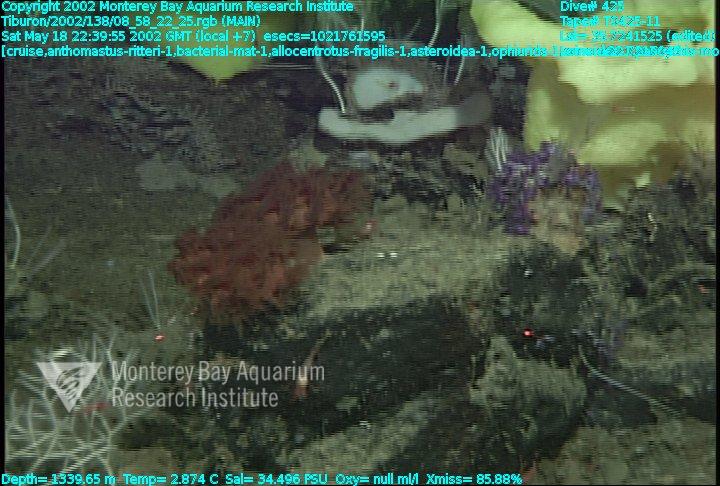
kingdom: Animalia
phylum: Porifera
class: Hexactinellida
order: Lyssacinosida
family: Rossellidae
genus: Staurocalyptus
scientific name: Staurocalyptus
